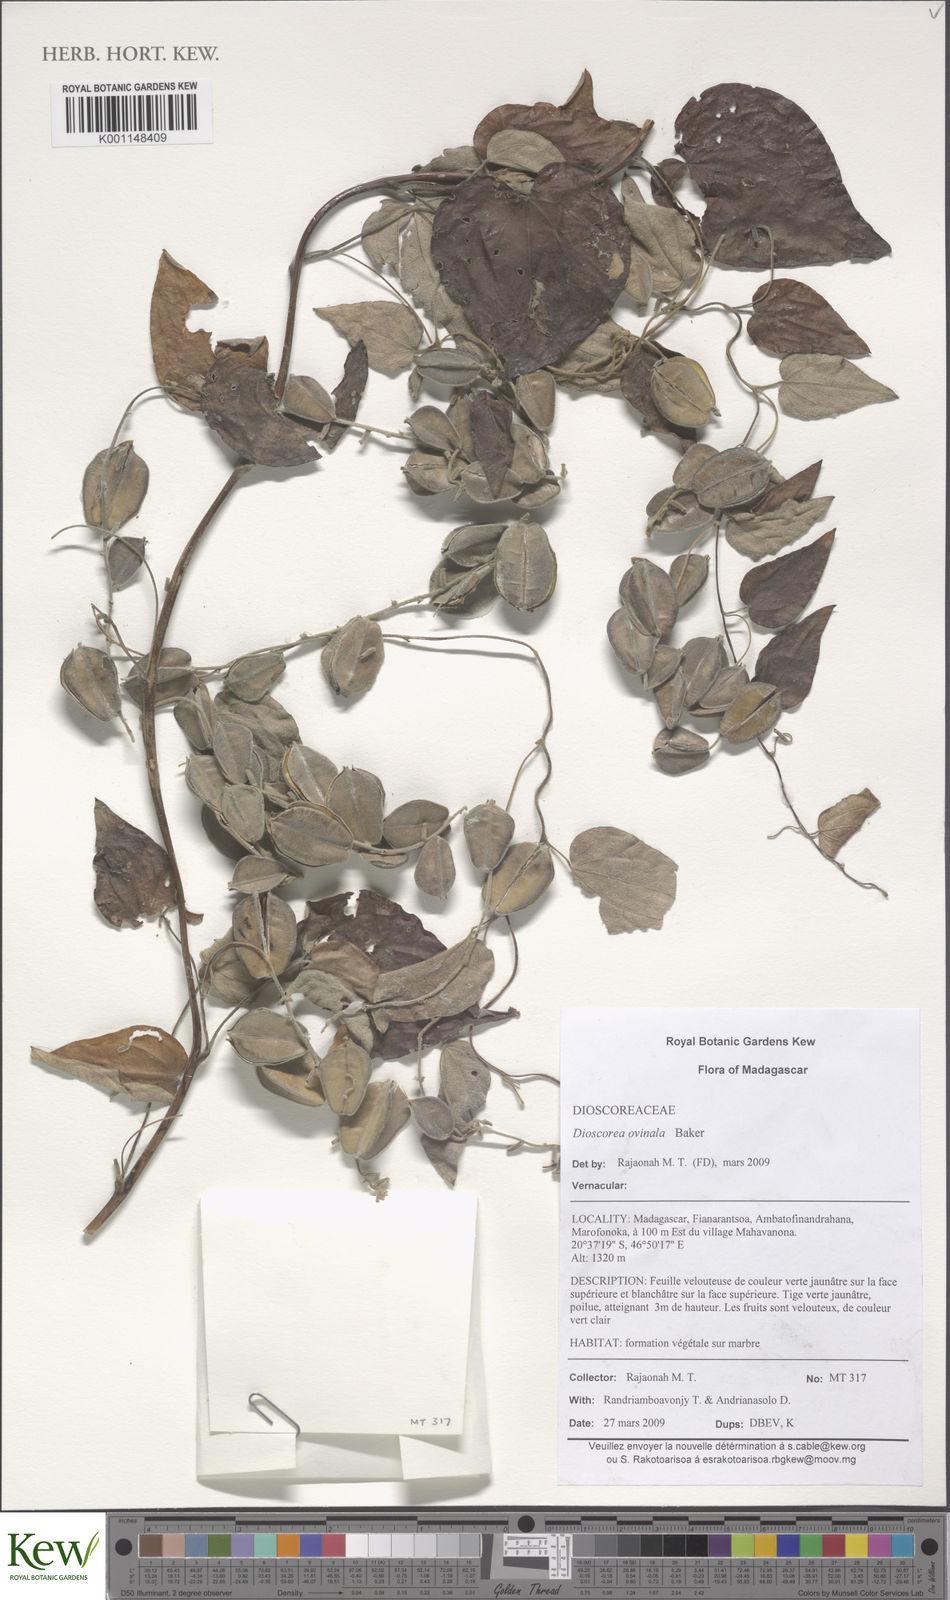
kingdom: Plantae
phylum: Tracheophyta
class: Liliopsida
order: Dioscoreales
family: Dioscoreaceae
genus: Dioscorea
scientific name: Dioscorea ovinala
